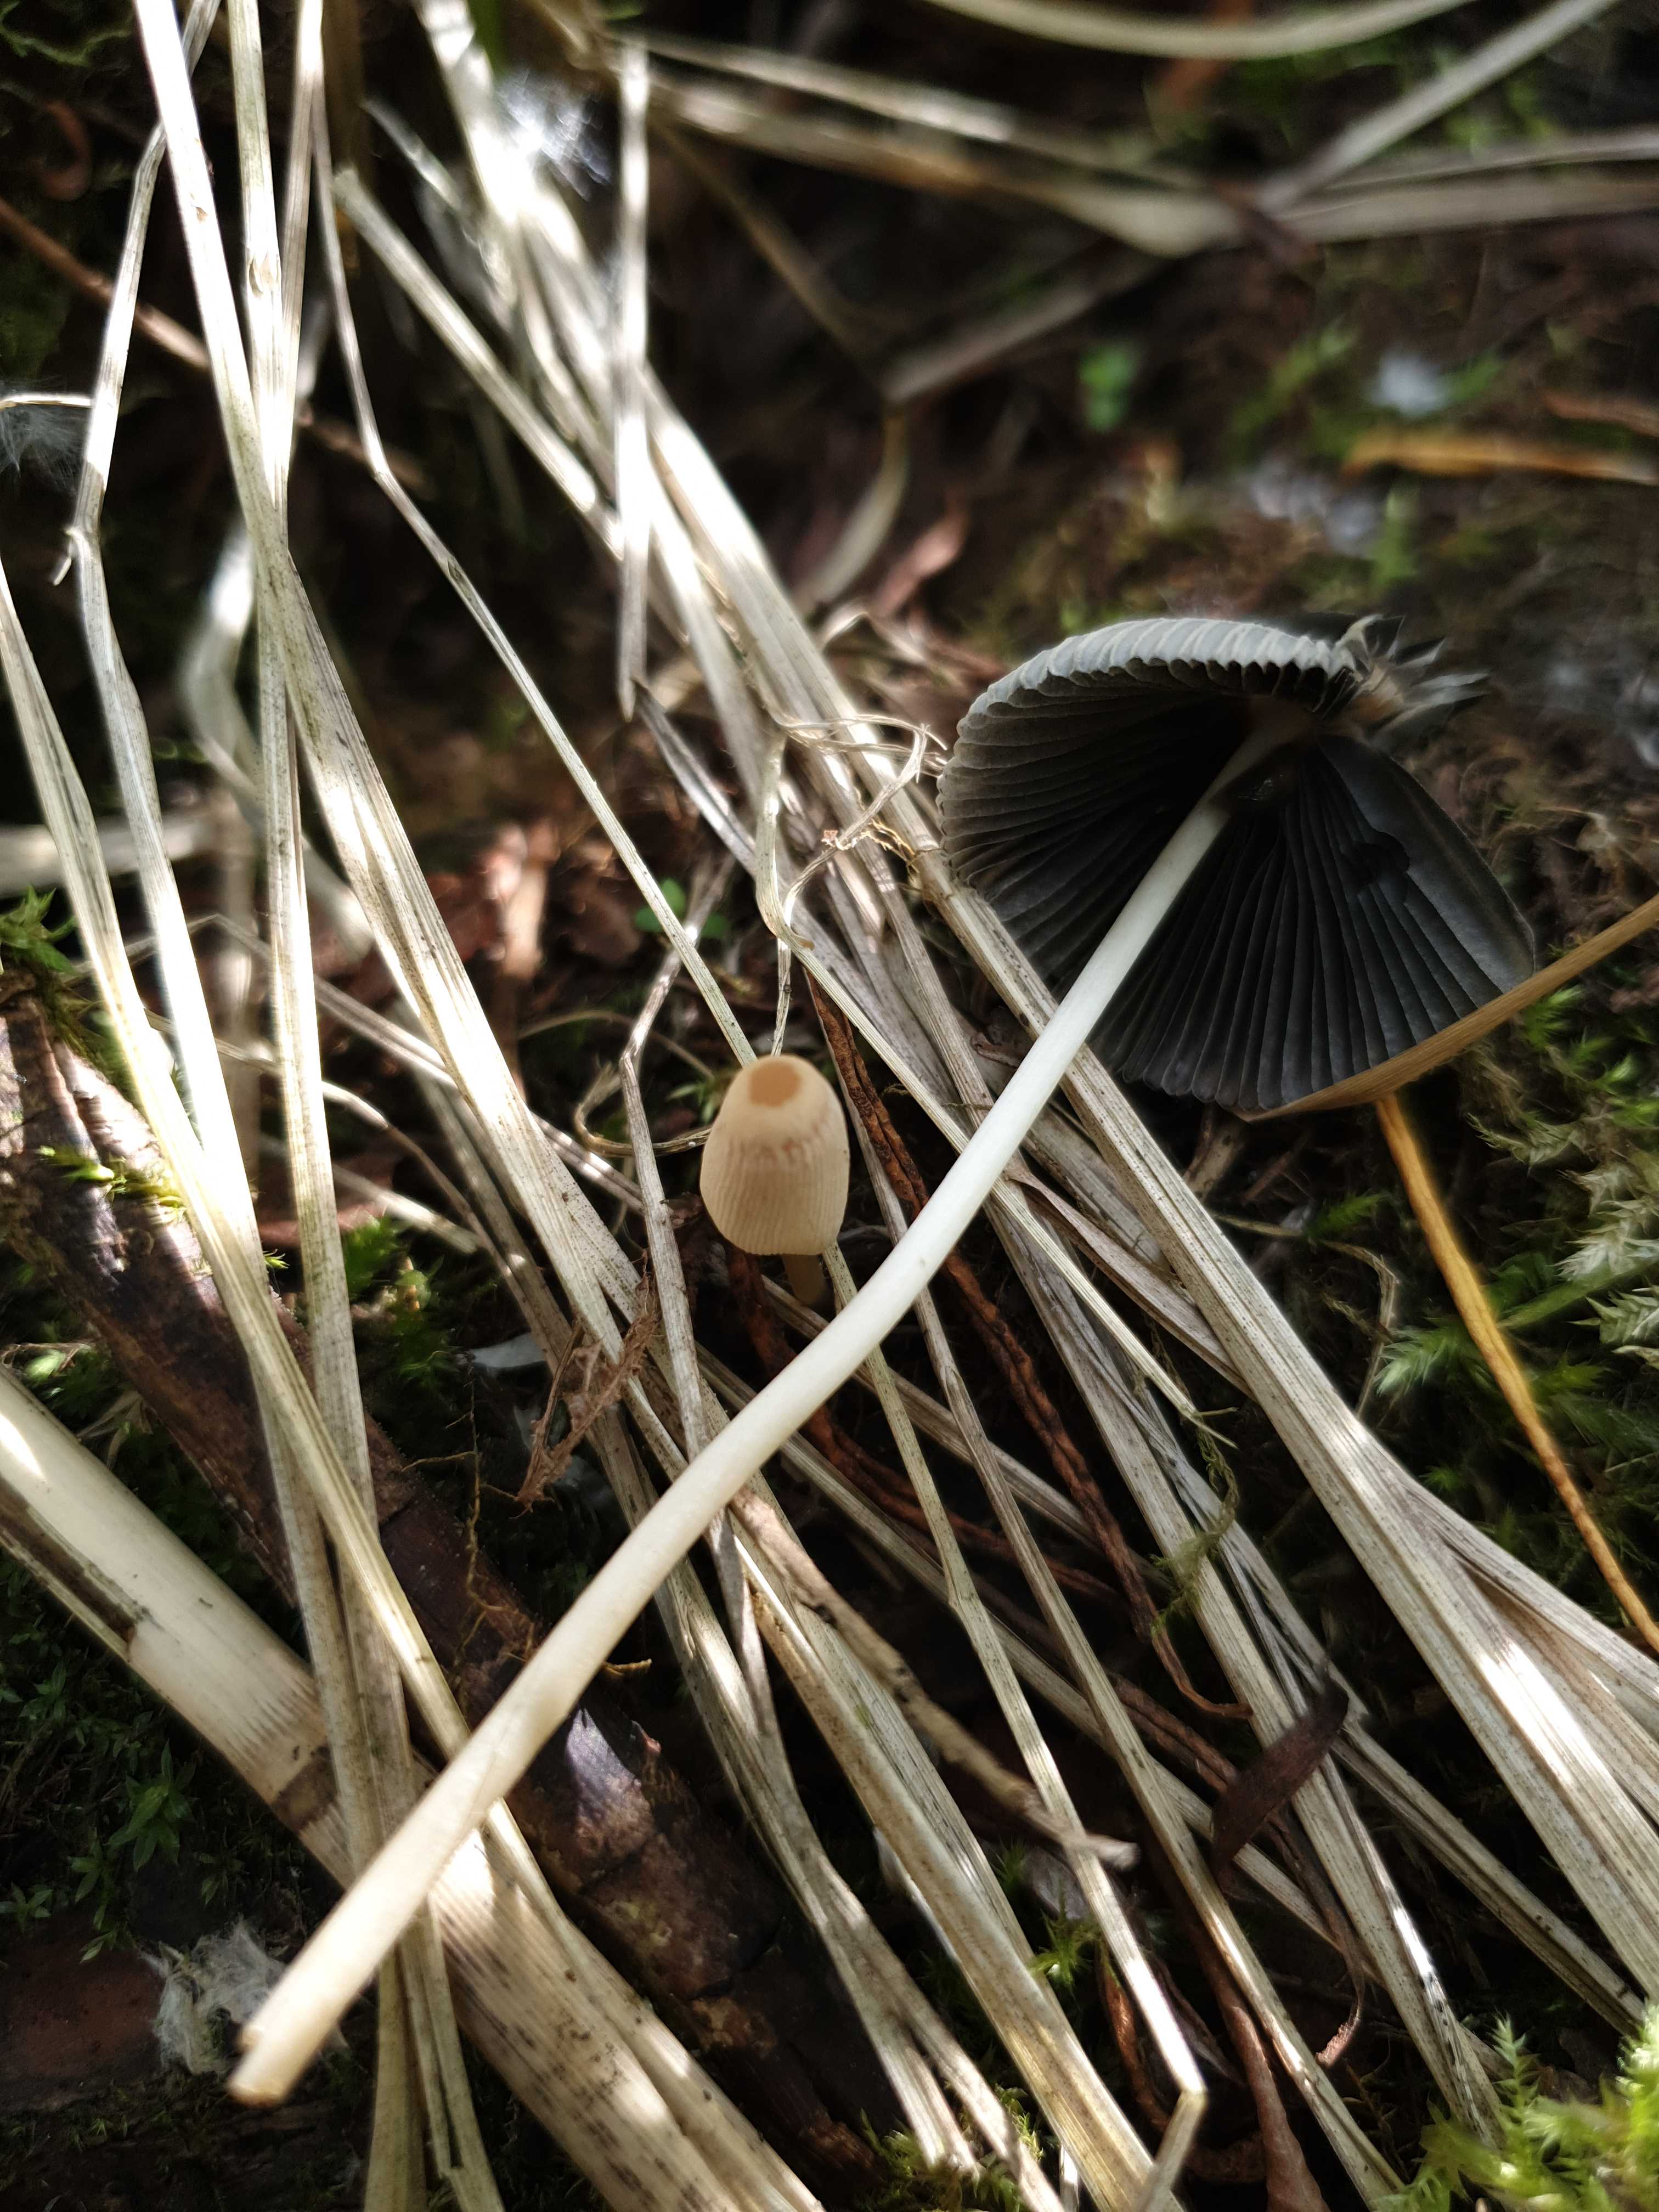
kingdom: Fungi
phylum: Basidiomycota
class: Agaricomycetes
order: Agaricales
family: Psathyrellaceae
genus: Parasola
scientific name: Parasola
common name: hjulhat
